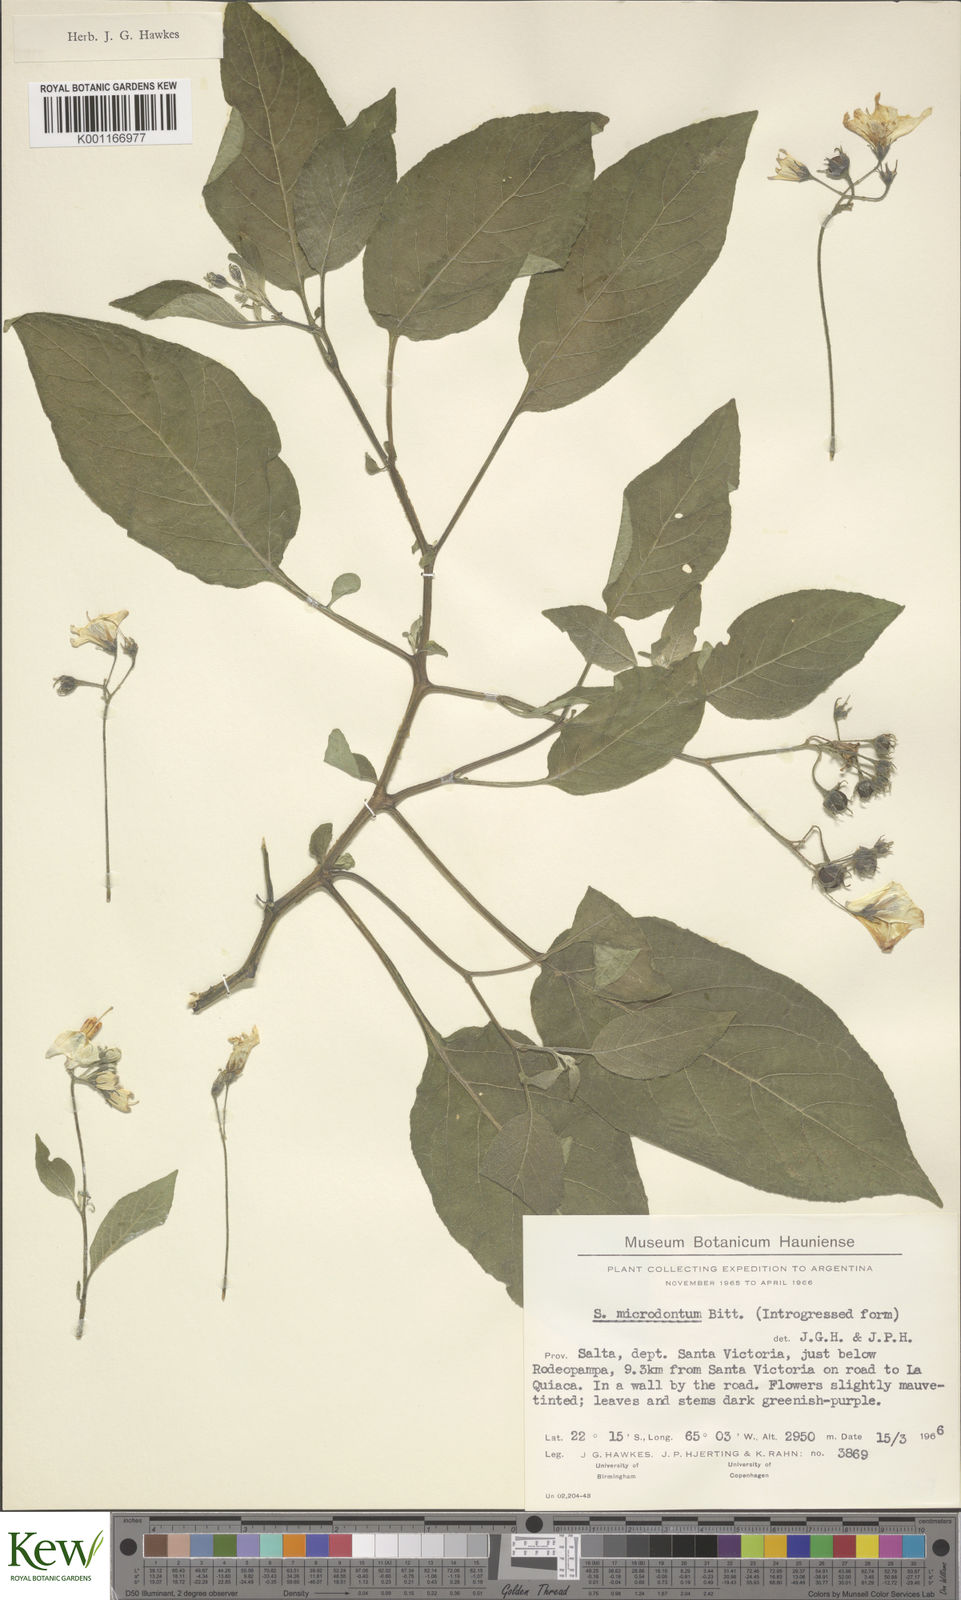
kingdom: Plantae
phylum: Tracheophyta
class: Magnoliopsida
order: Solanales
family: Solanaceae
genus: Solanum
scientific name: Solanum microdontum
